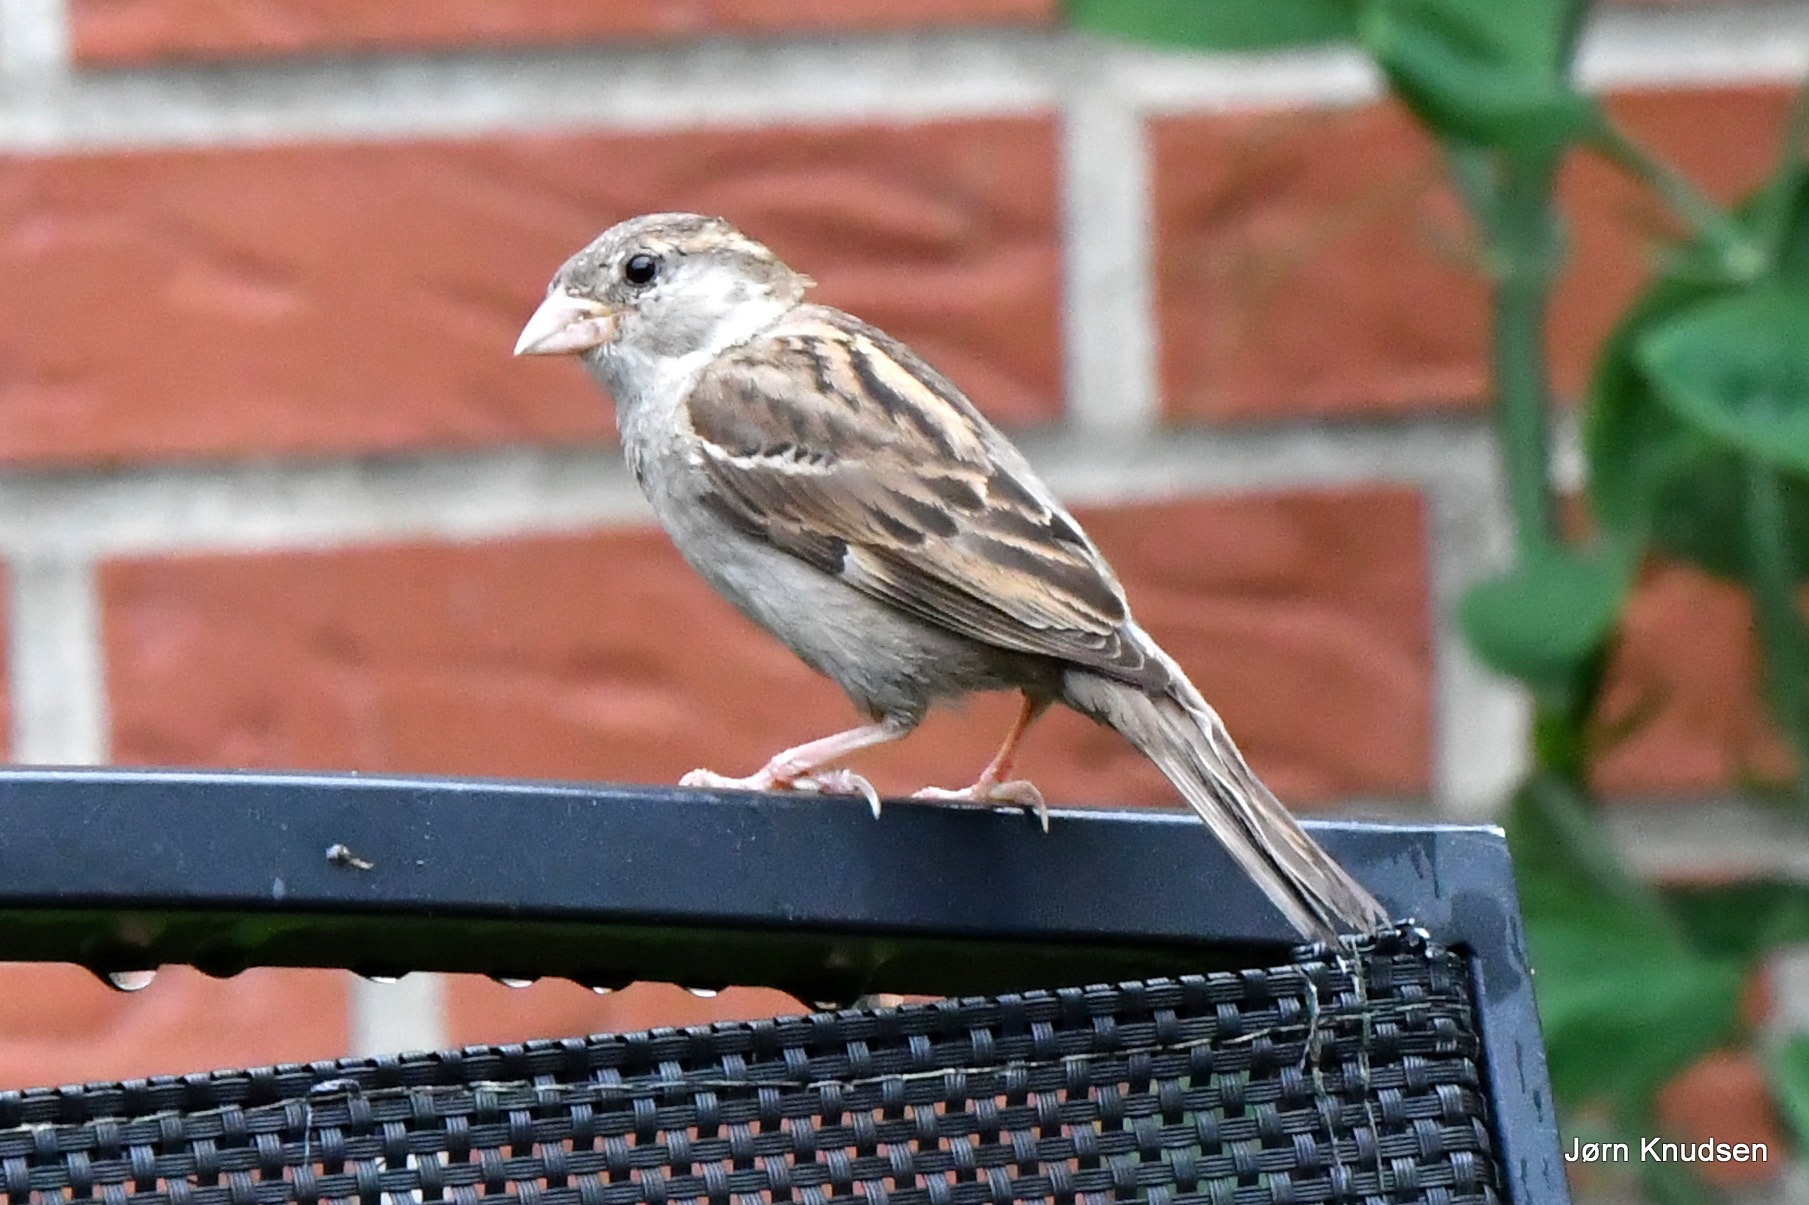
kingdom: Animalia
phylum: Chordata
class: Aves
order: Passeriformes
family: Passeridae
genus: Passer
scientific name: Passer domesticus
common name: Gråspurv
